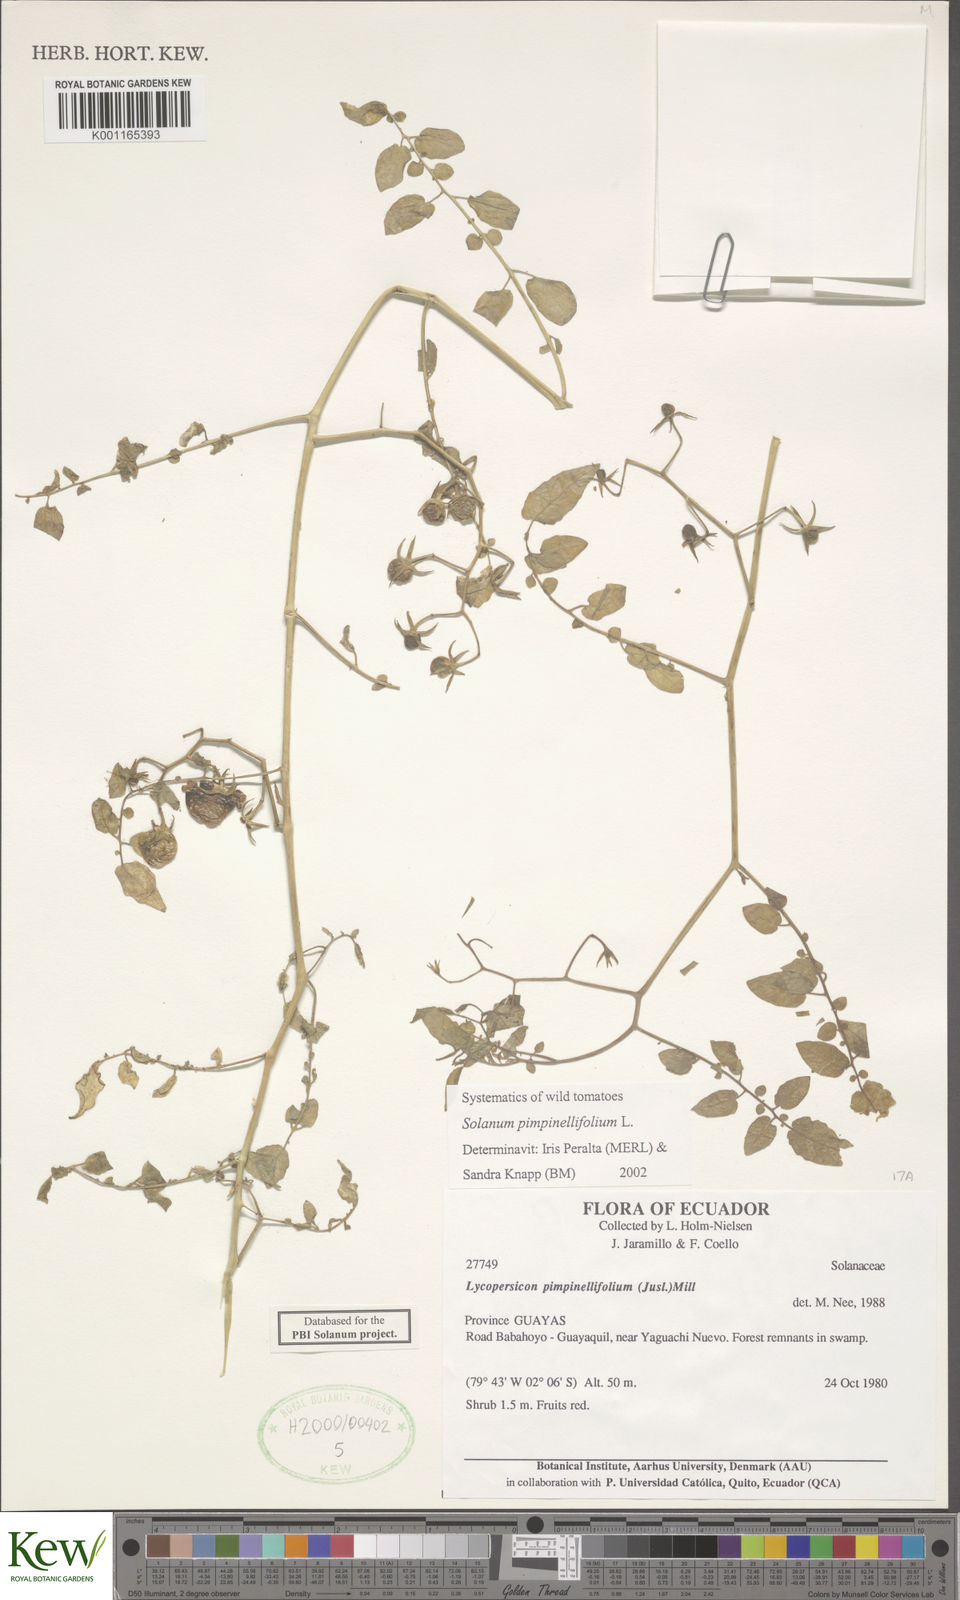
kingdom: Plantae
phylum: Tracheophyta
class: Magnoliopsida
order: Solanales
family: Solanaceae
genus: Solanum
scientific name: Solanum pimpinellifolium
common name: Currant-tomato
